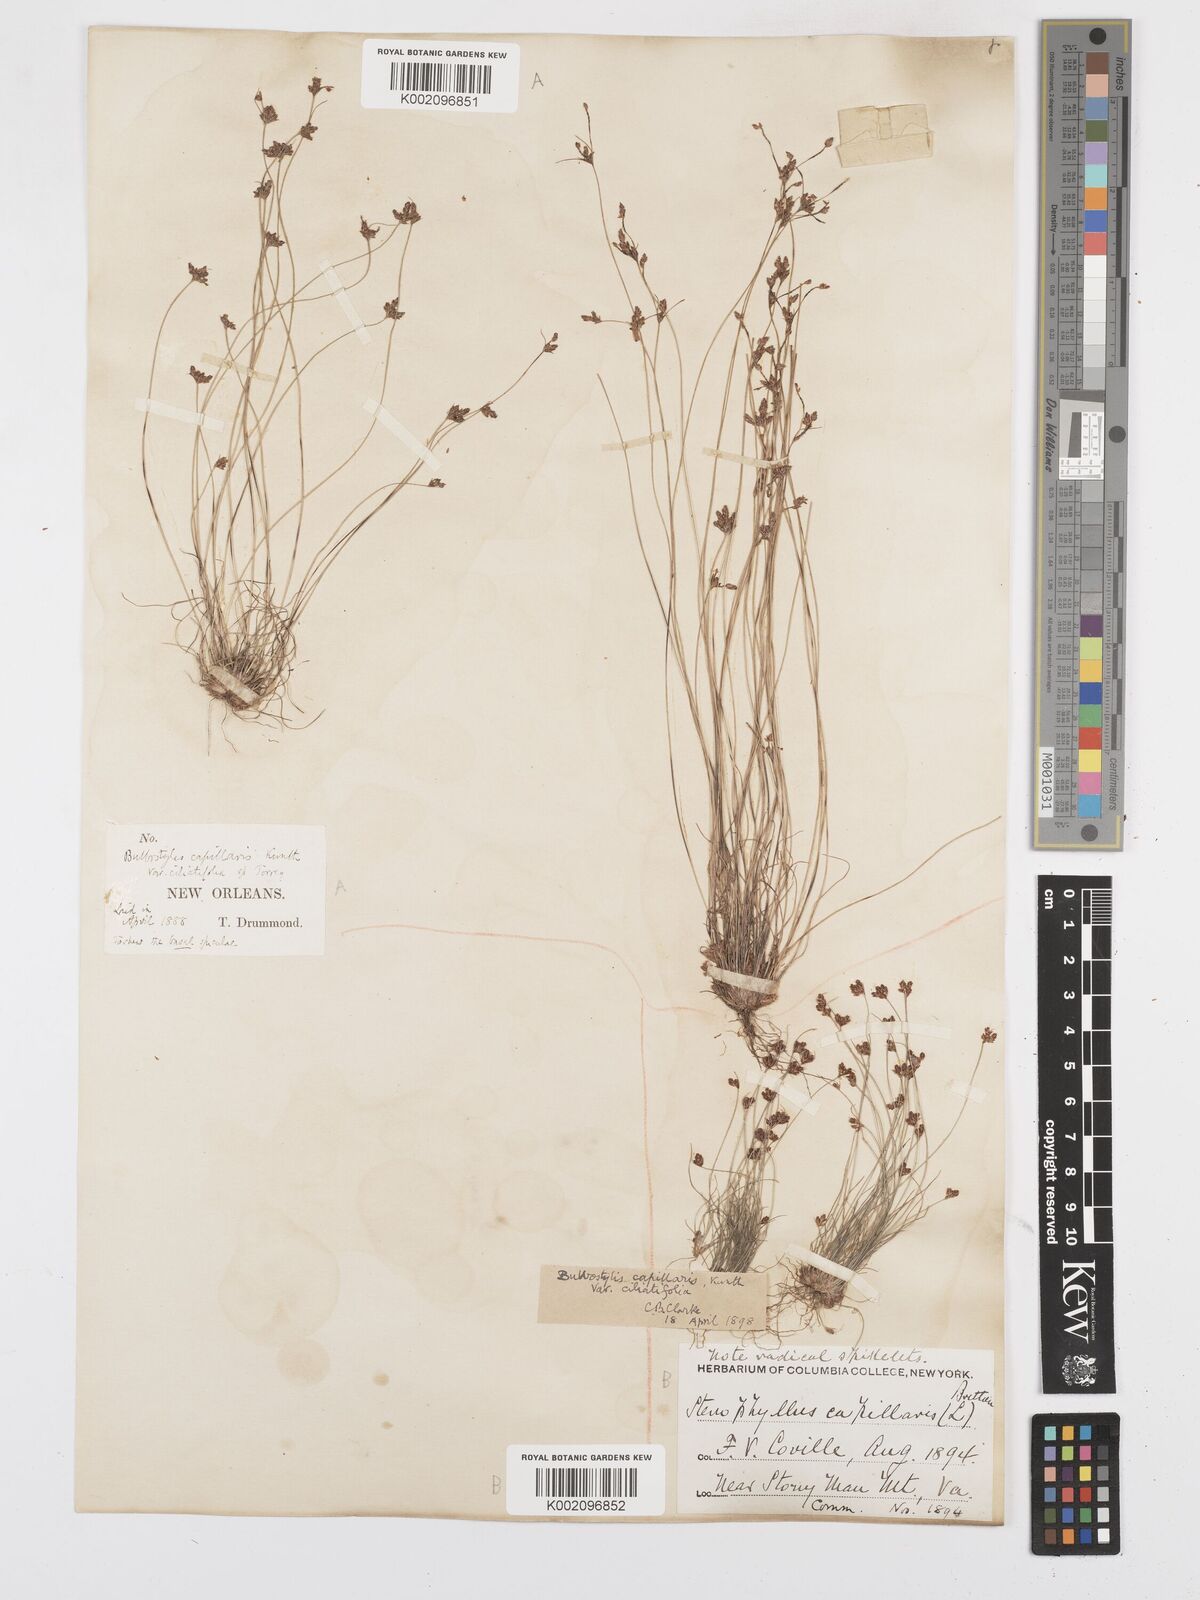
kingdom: Plantae
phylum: Tracheophyta
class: Liliopsida
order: Poales
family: Cyperaceae
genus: Bulbostylis
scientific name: Bulbostylis capillaris
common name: Densetuft hairsedge
